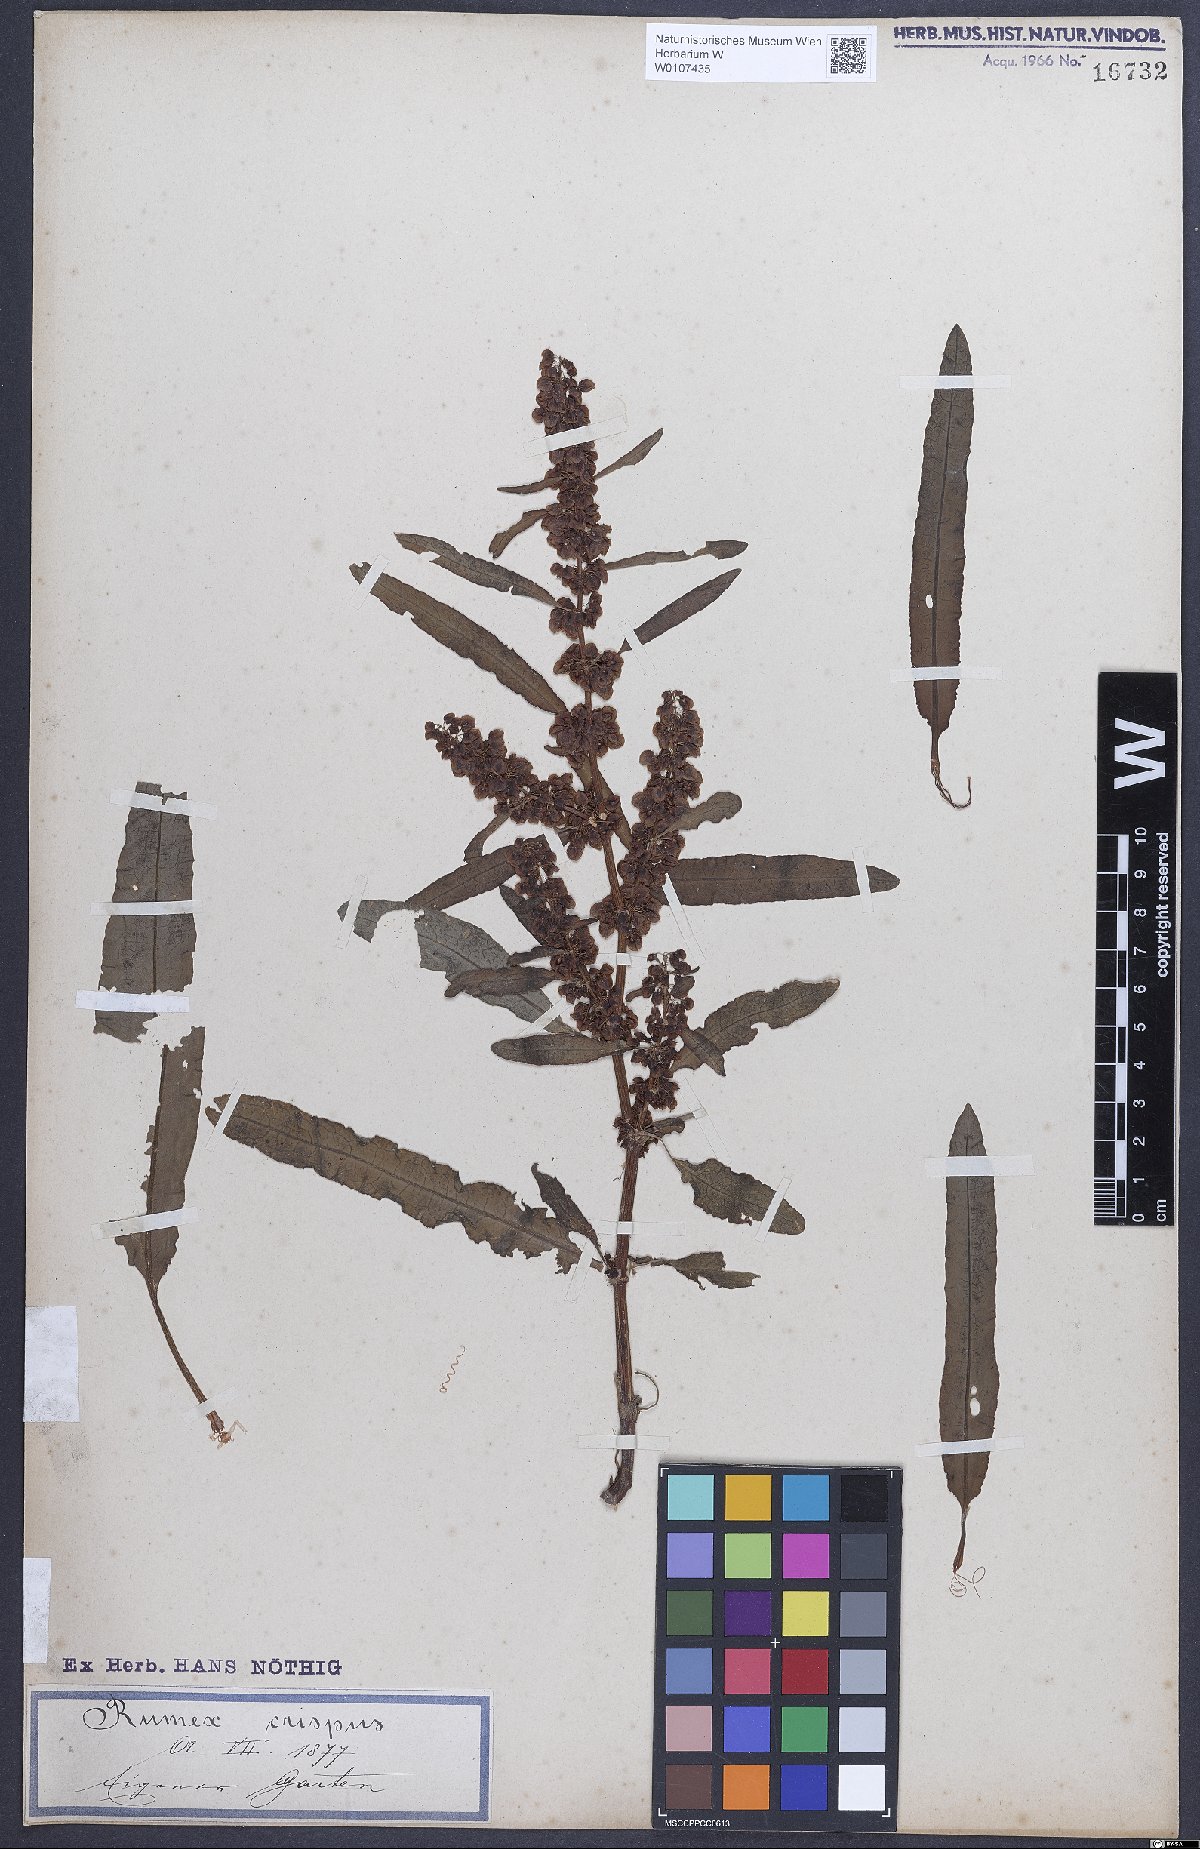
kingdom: Plantae
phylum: Tracheophyta
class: Magnoliopsida
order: Caryophyllales
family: Polygonaceae
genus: Rumex
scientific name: Rumex crispus
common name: Curled dock
